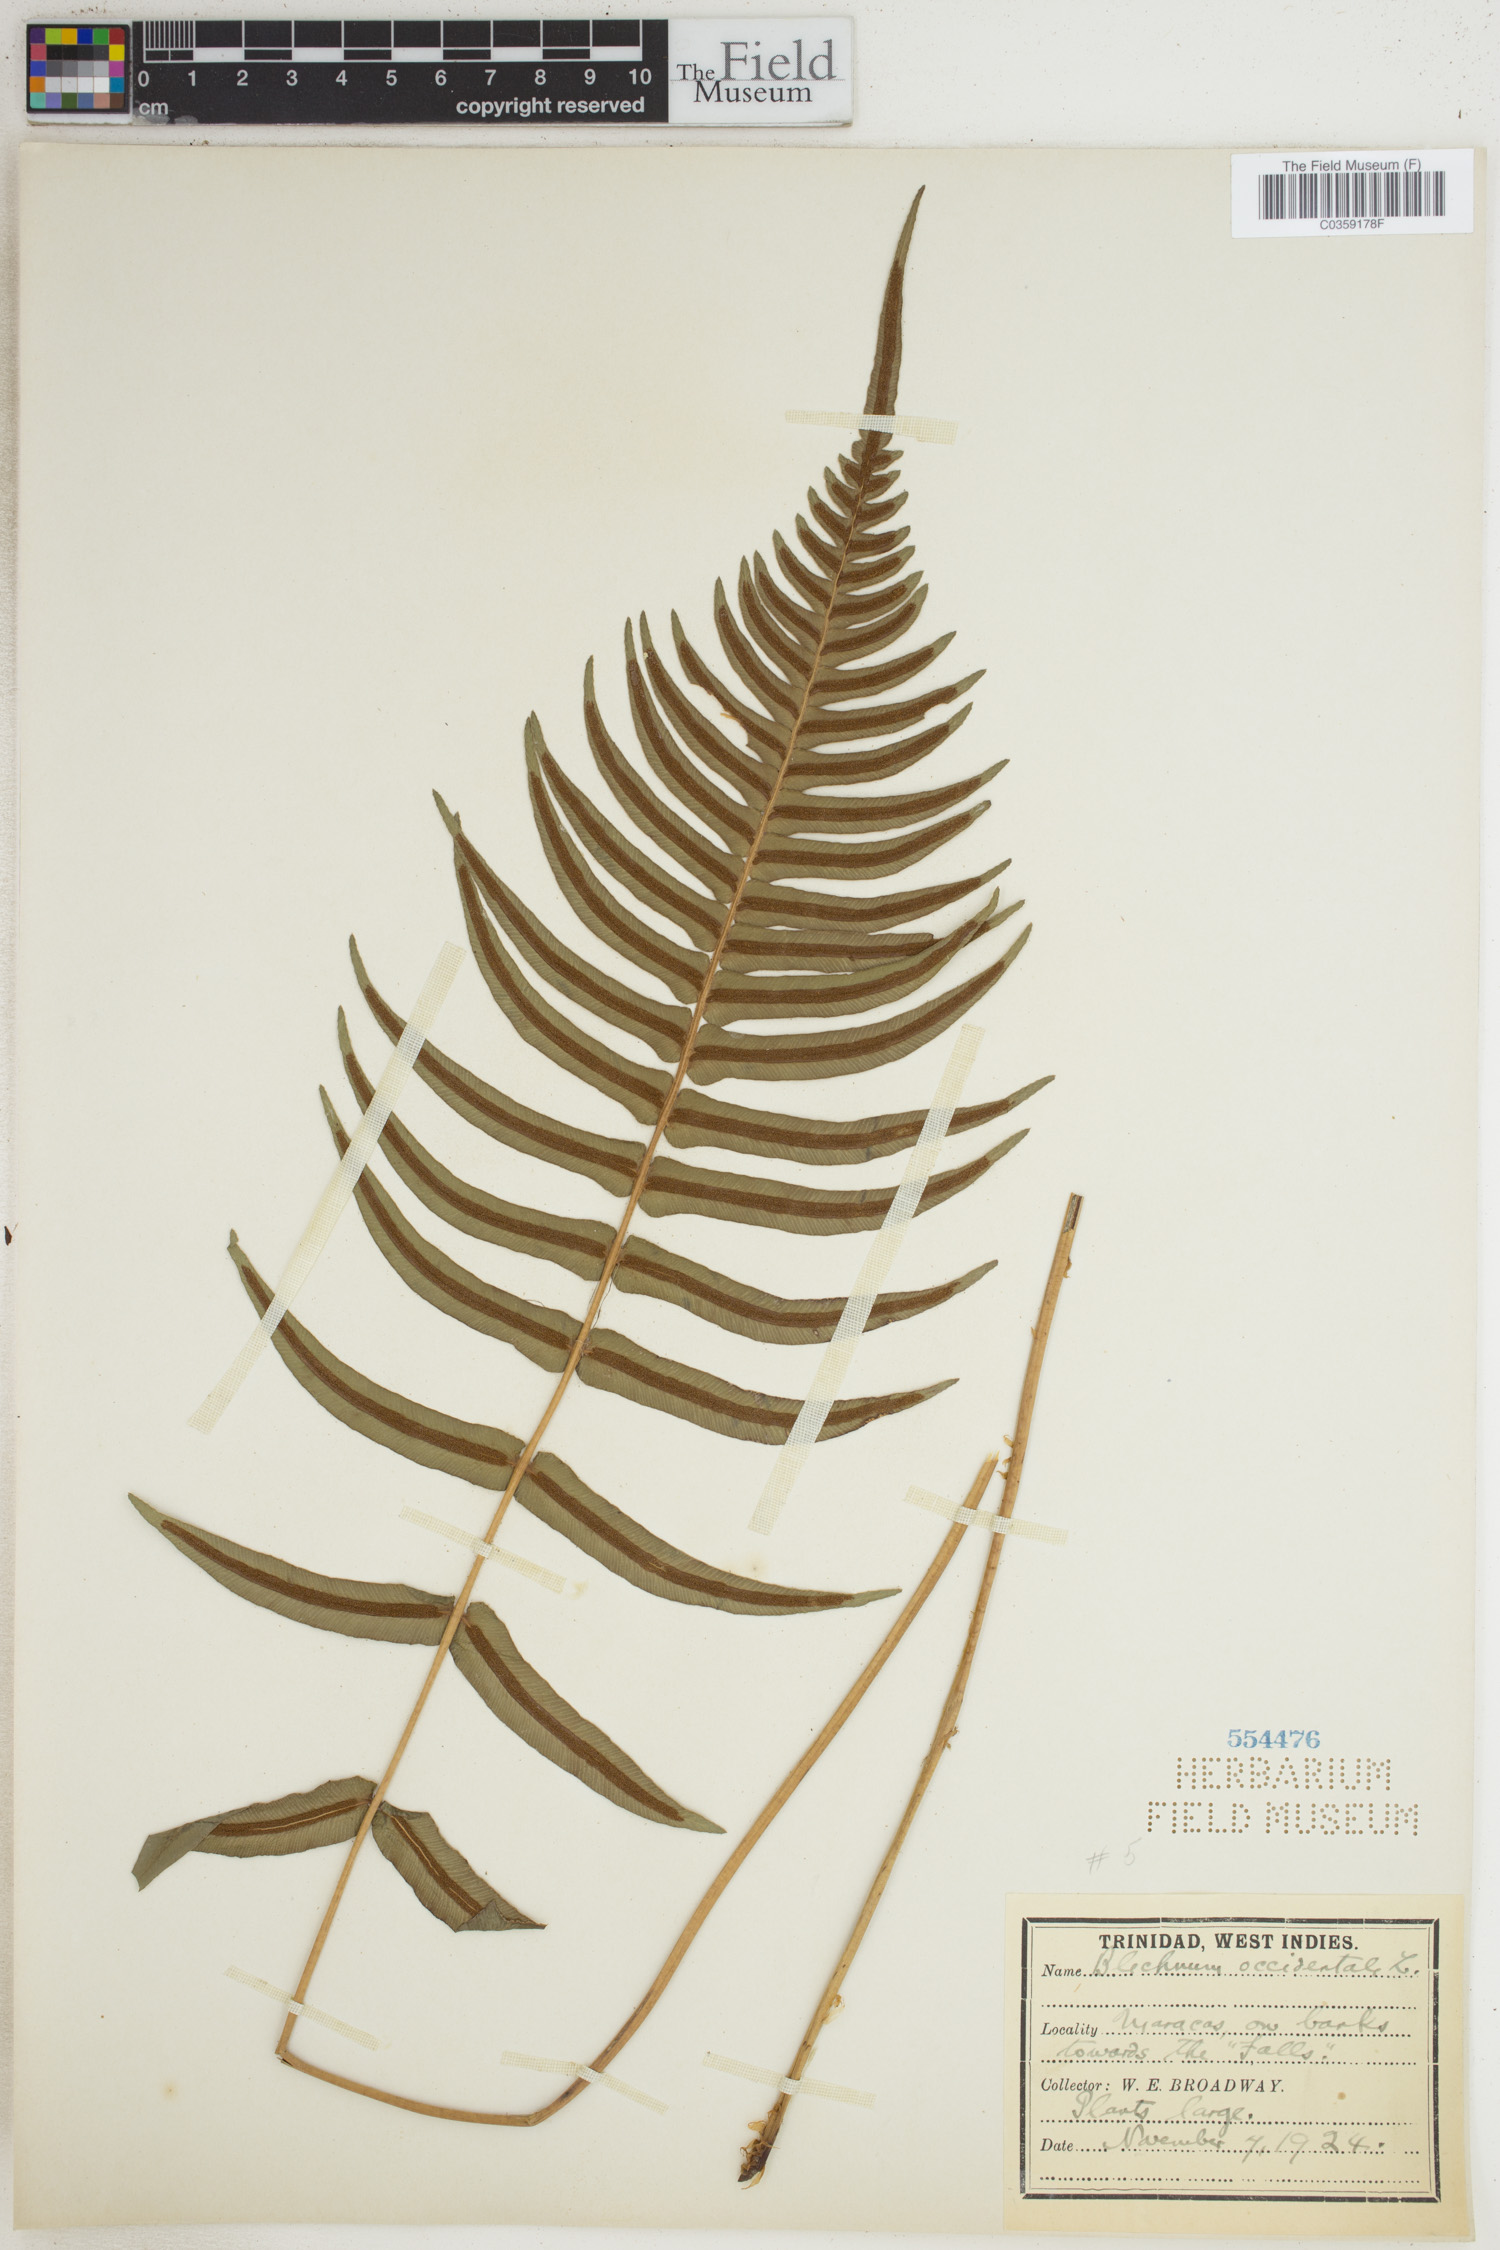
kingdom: Plantae
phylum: Tracheophyta
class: Polypodiopsida
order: Polypodiales
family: Blechnaceae
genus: Blechnum
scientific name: Blechnum occidentale
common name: Hammock fern
